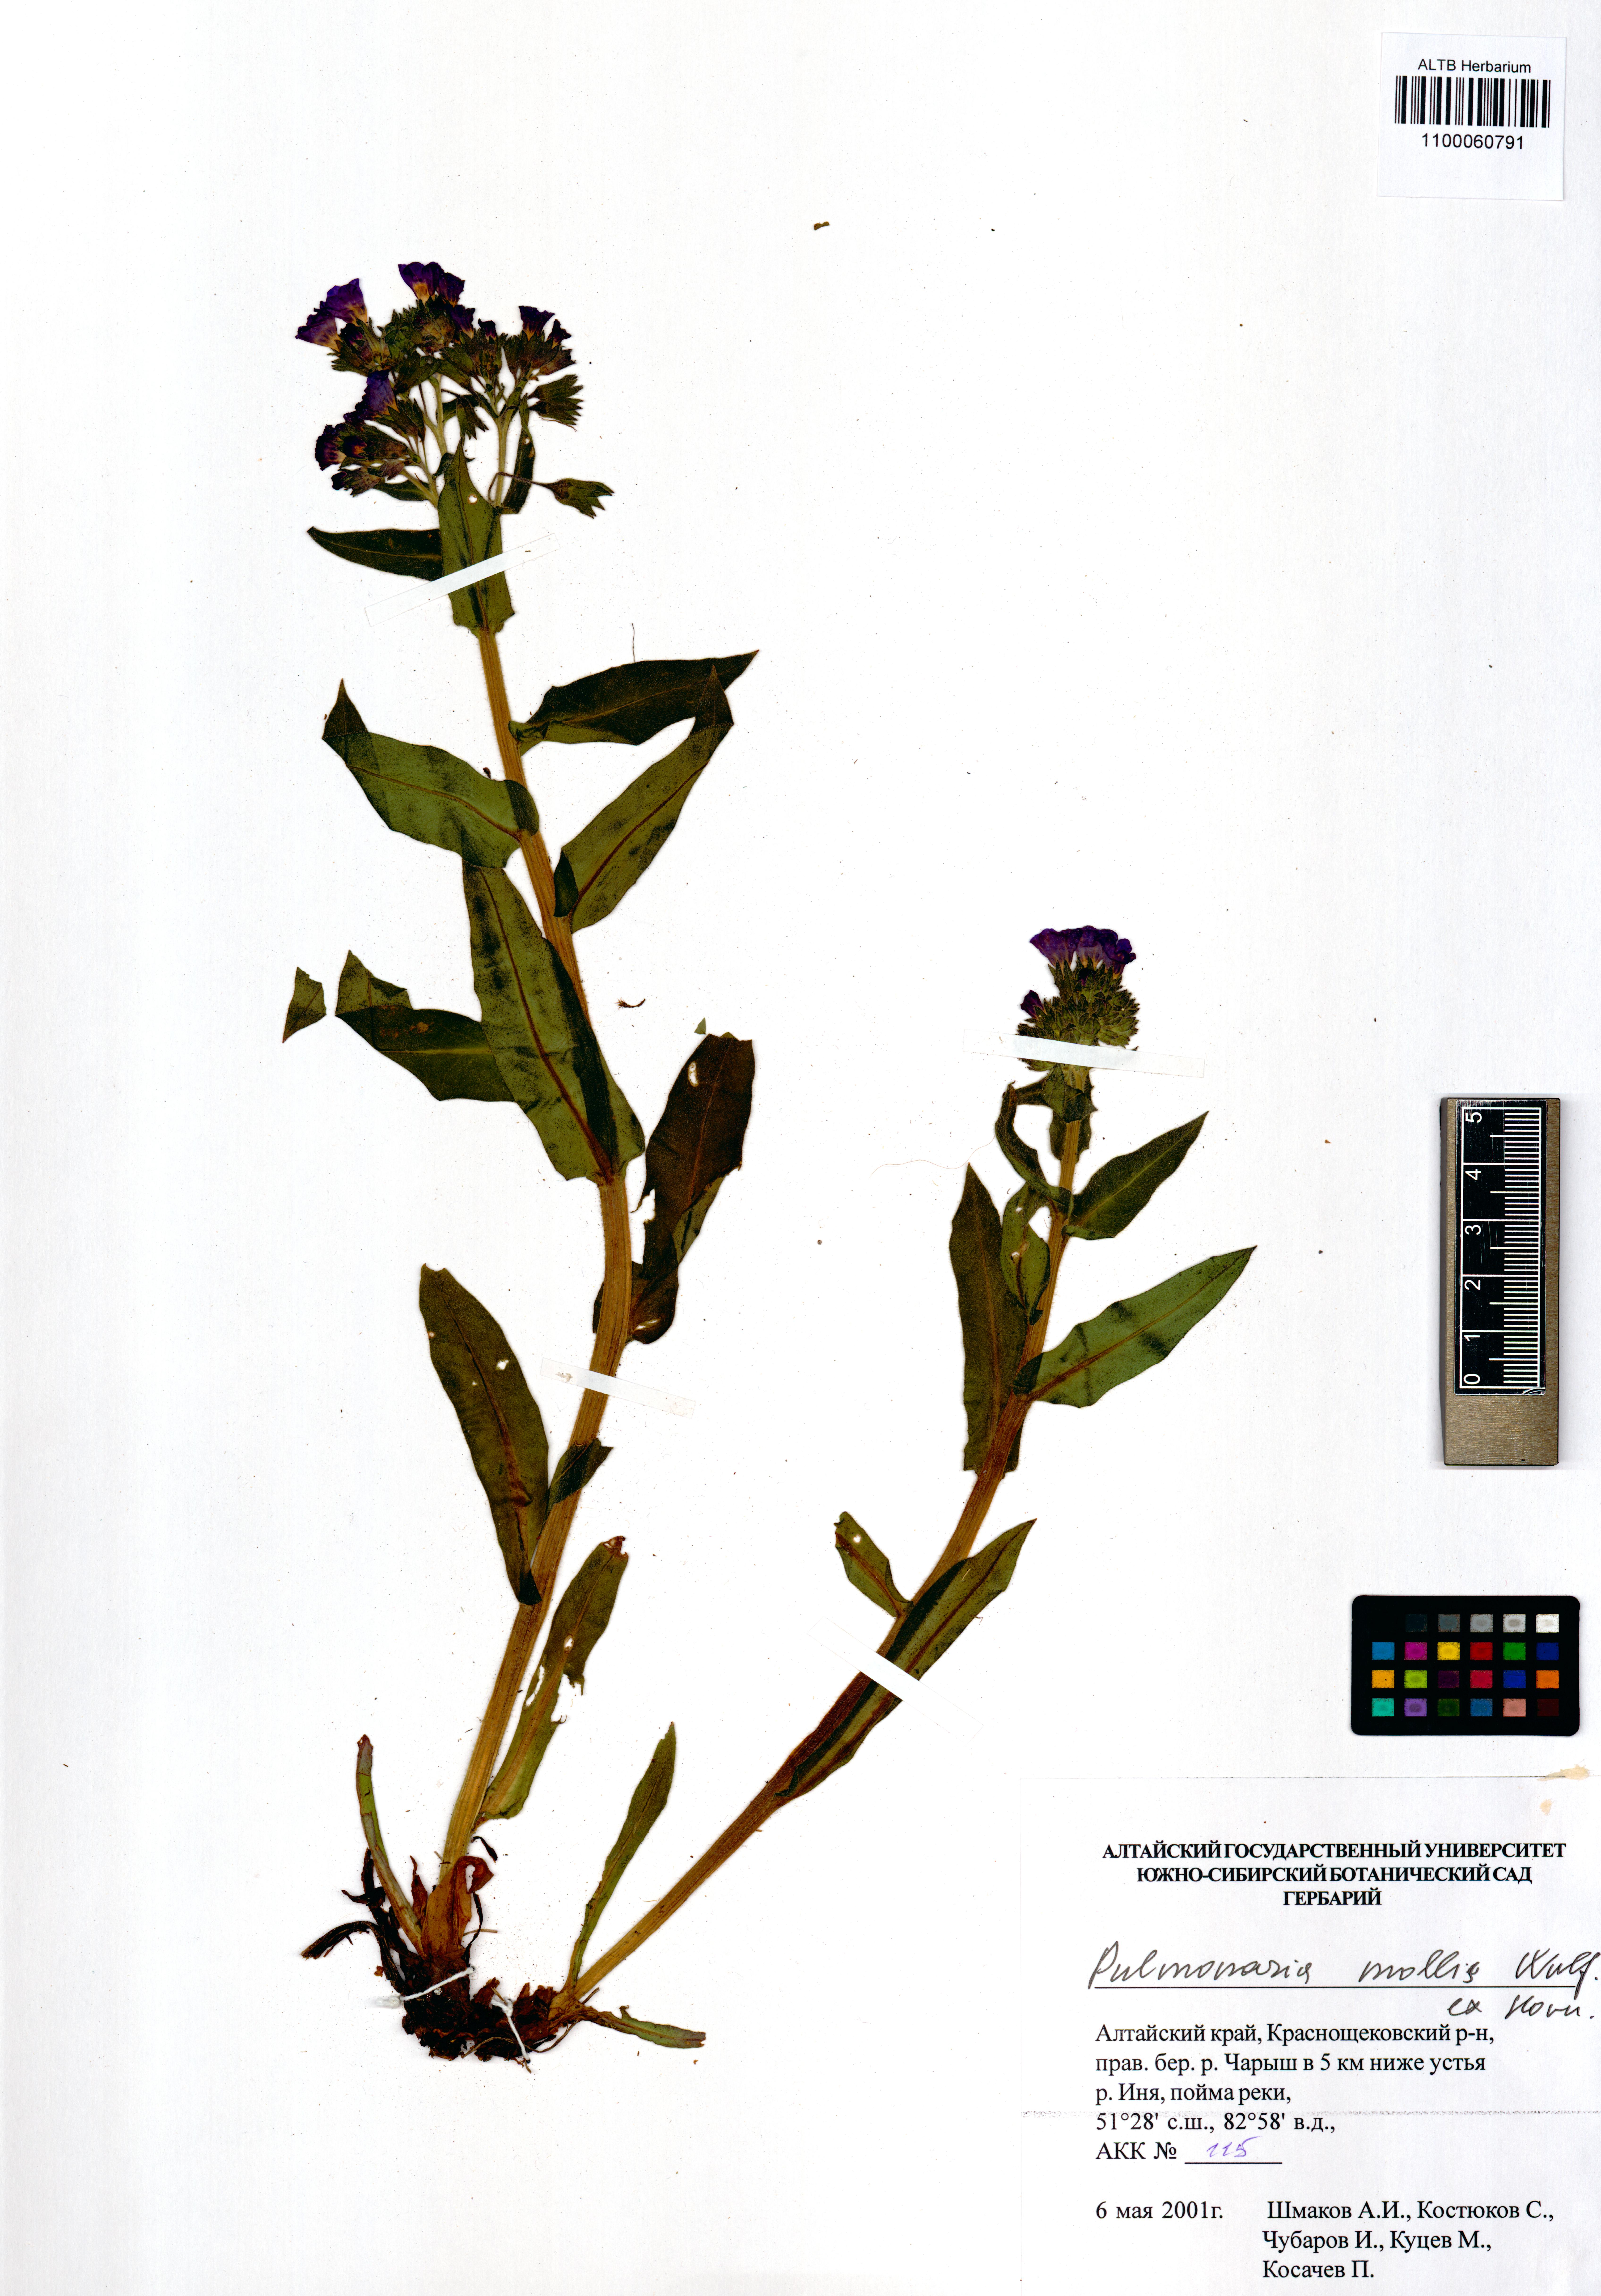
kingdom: Plantae
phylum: Tracheophyta
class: Magnoliopsida
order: Boraginales
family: Boraginaceae
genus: Pulmonaria
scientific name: Pulmonaria mollis
